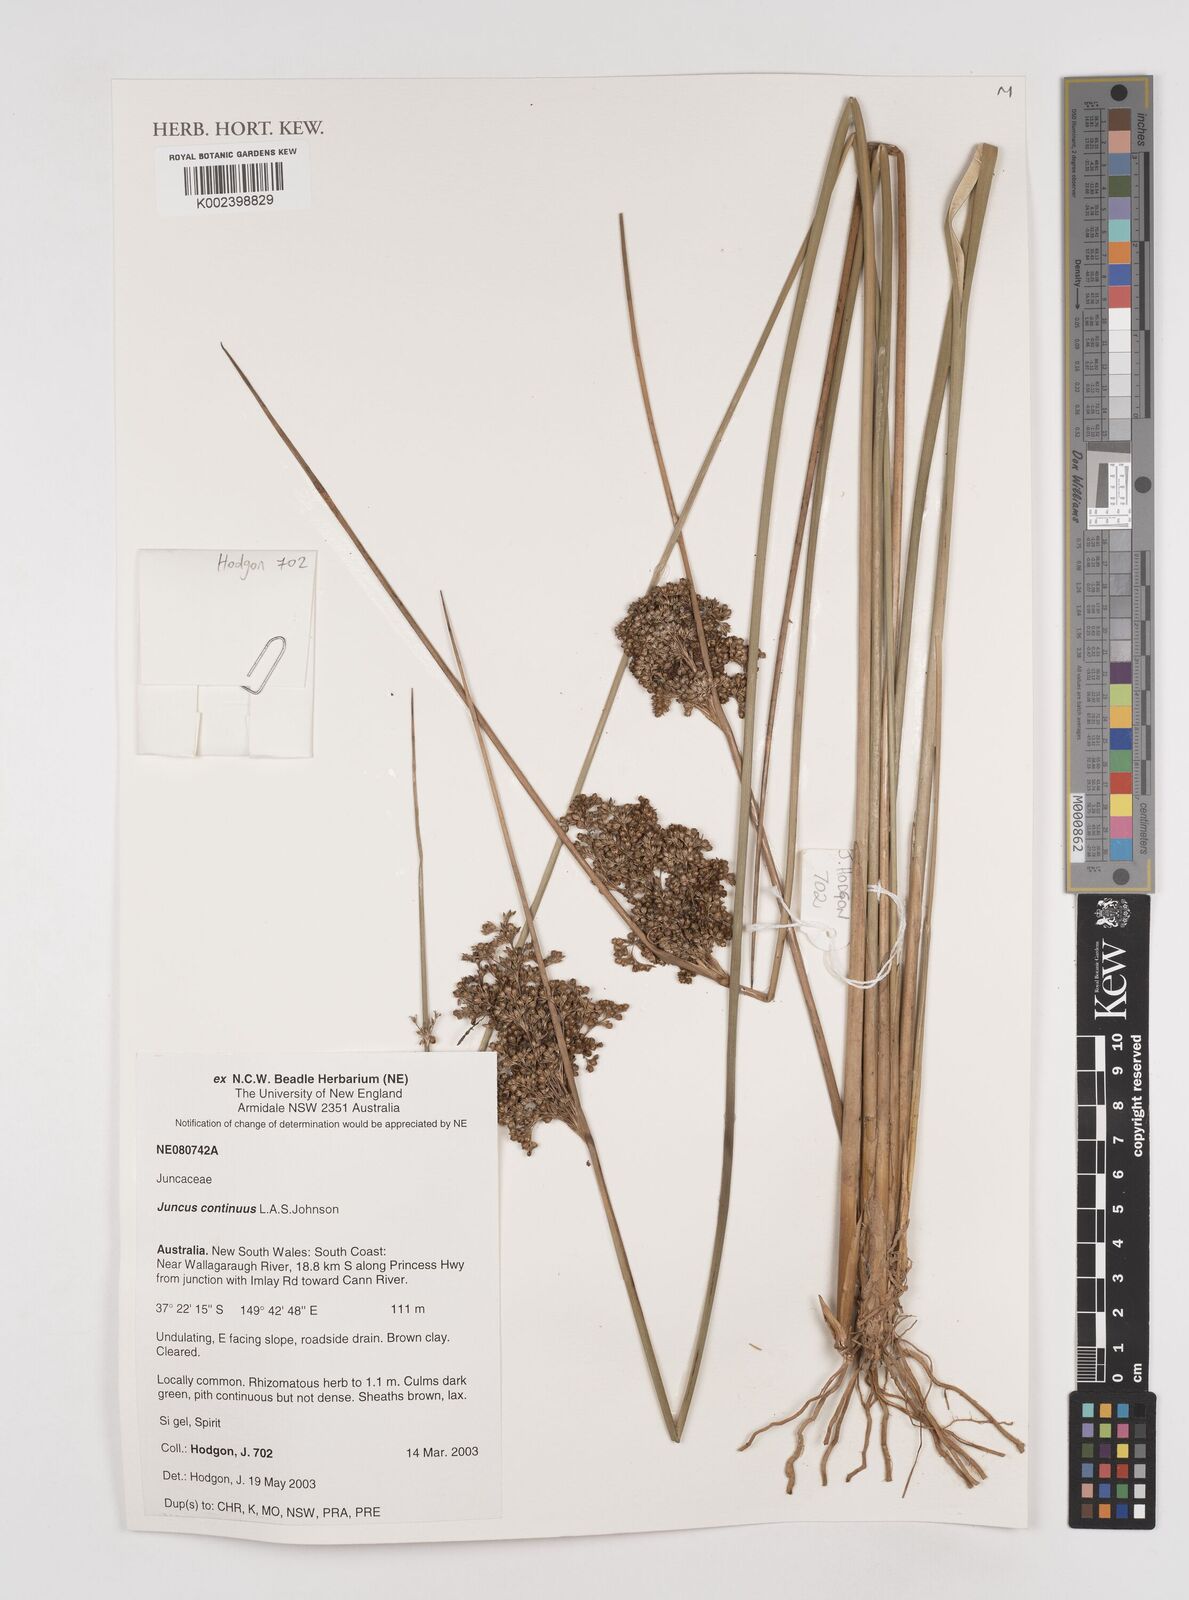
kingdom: Plantae
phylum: Tracheophyta
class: Liliopsida
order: Poales
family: Juncaceae
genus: Juncus
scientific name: Juncus continuus
